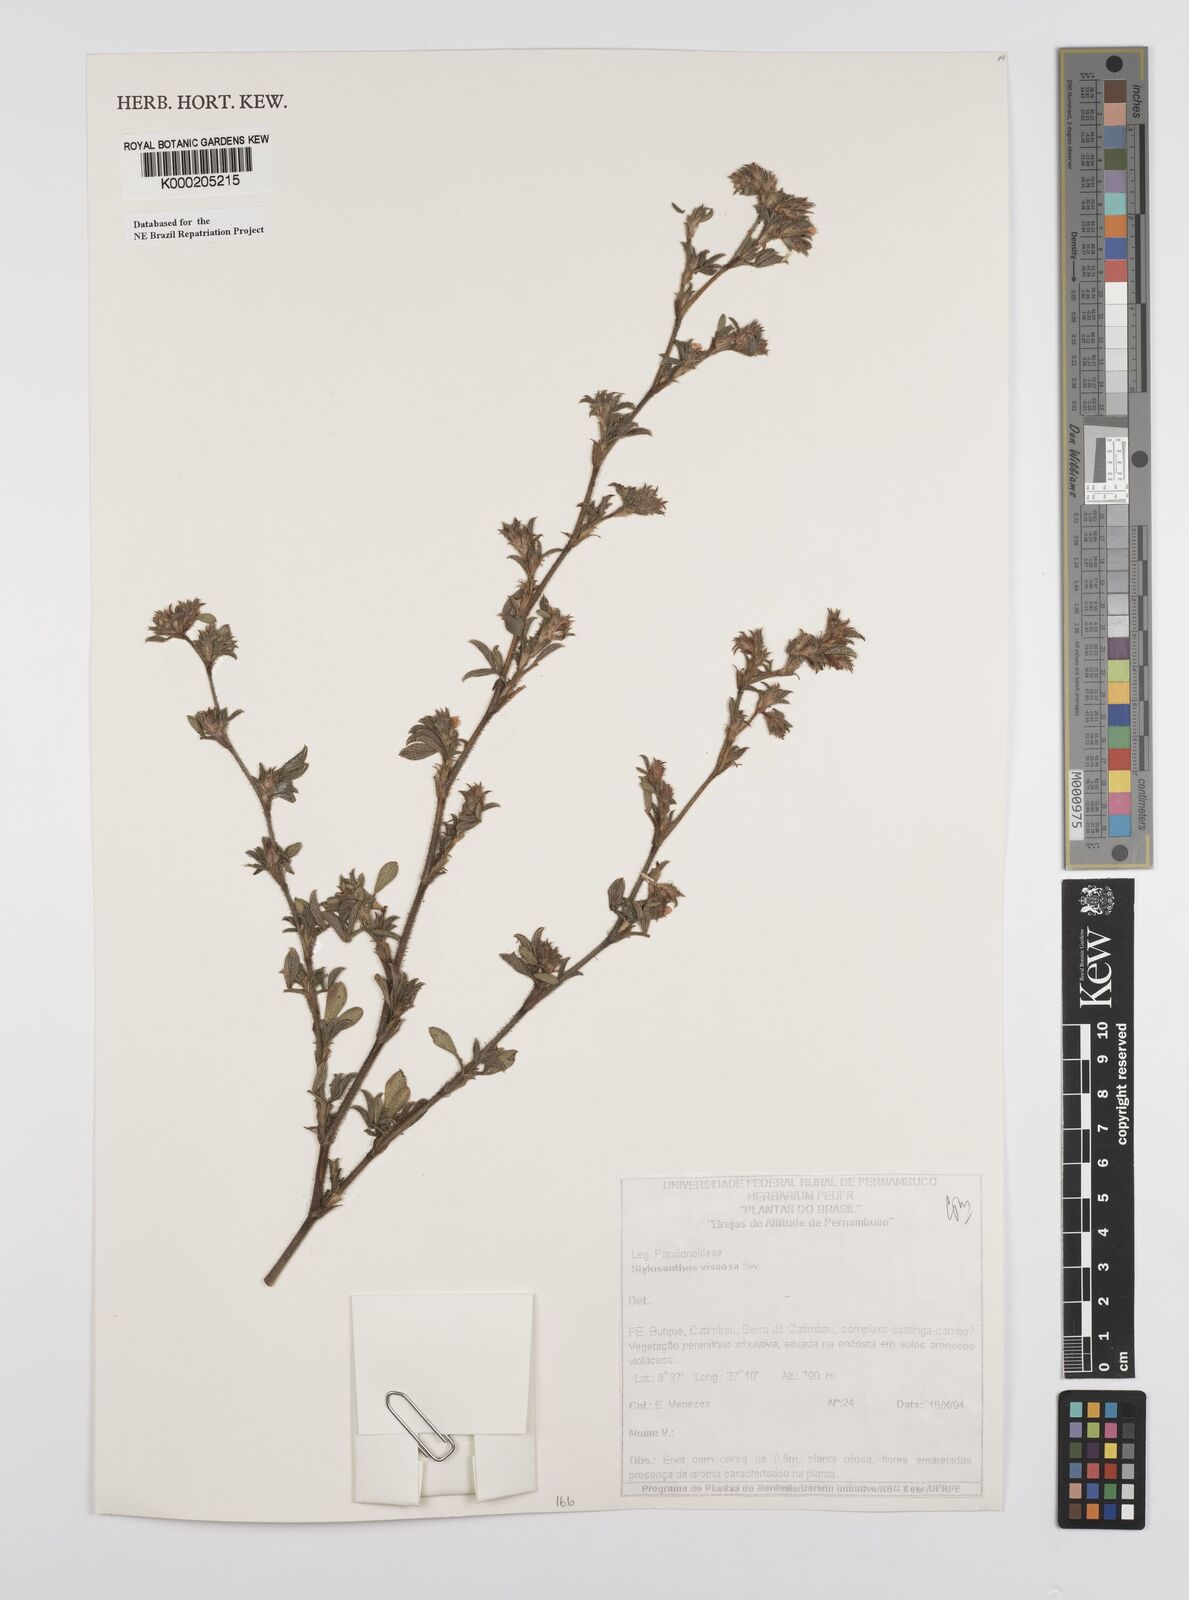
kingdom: Plantae
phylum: Tracheophyta
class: Magnoliopsida
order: Fabales
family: Fabaceae
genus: Stylosanthes
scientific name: Stylosanthes viscosa
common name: Viscid pencil-flower
